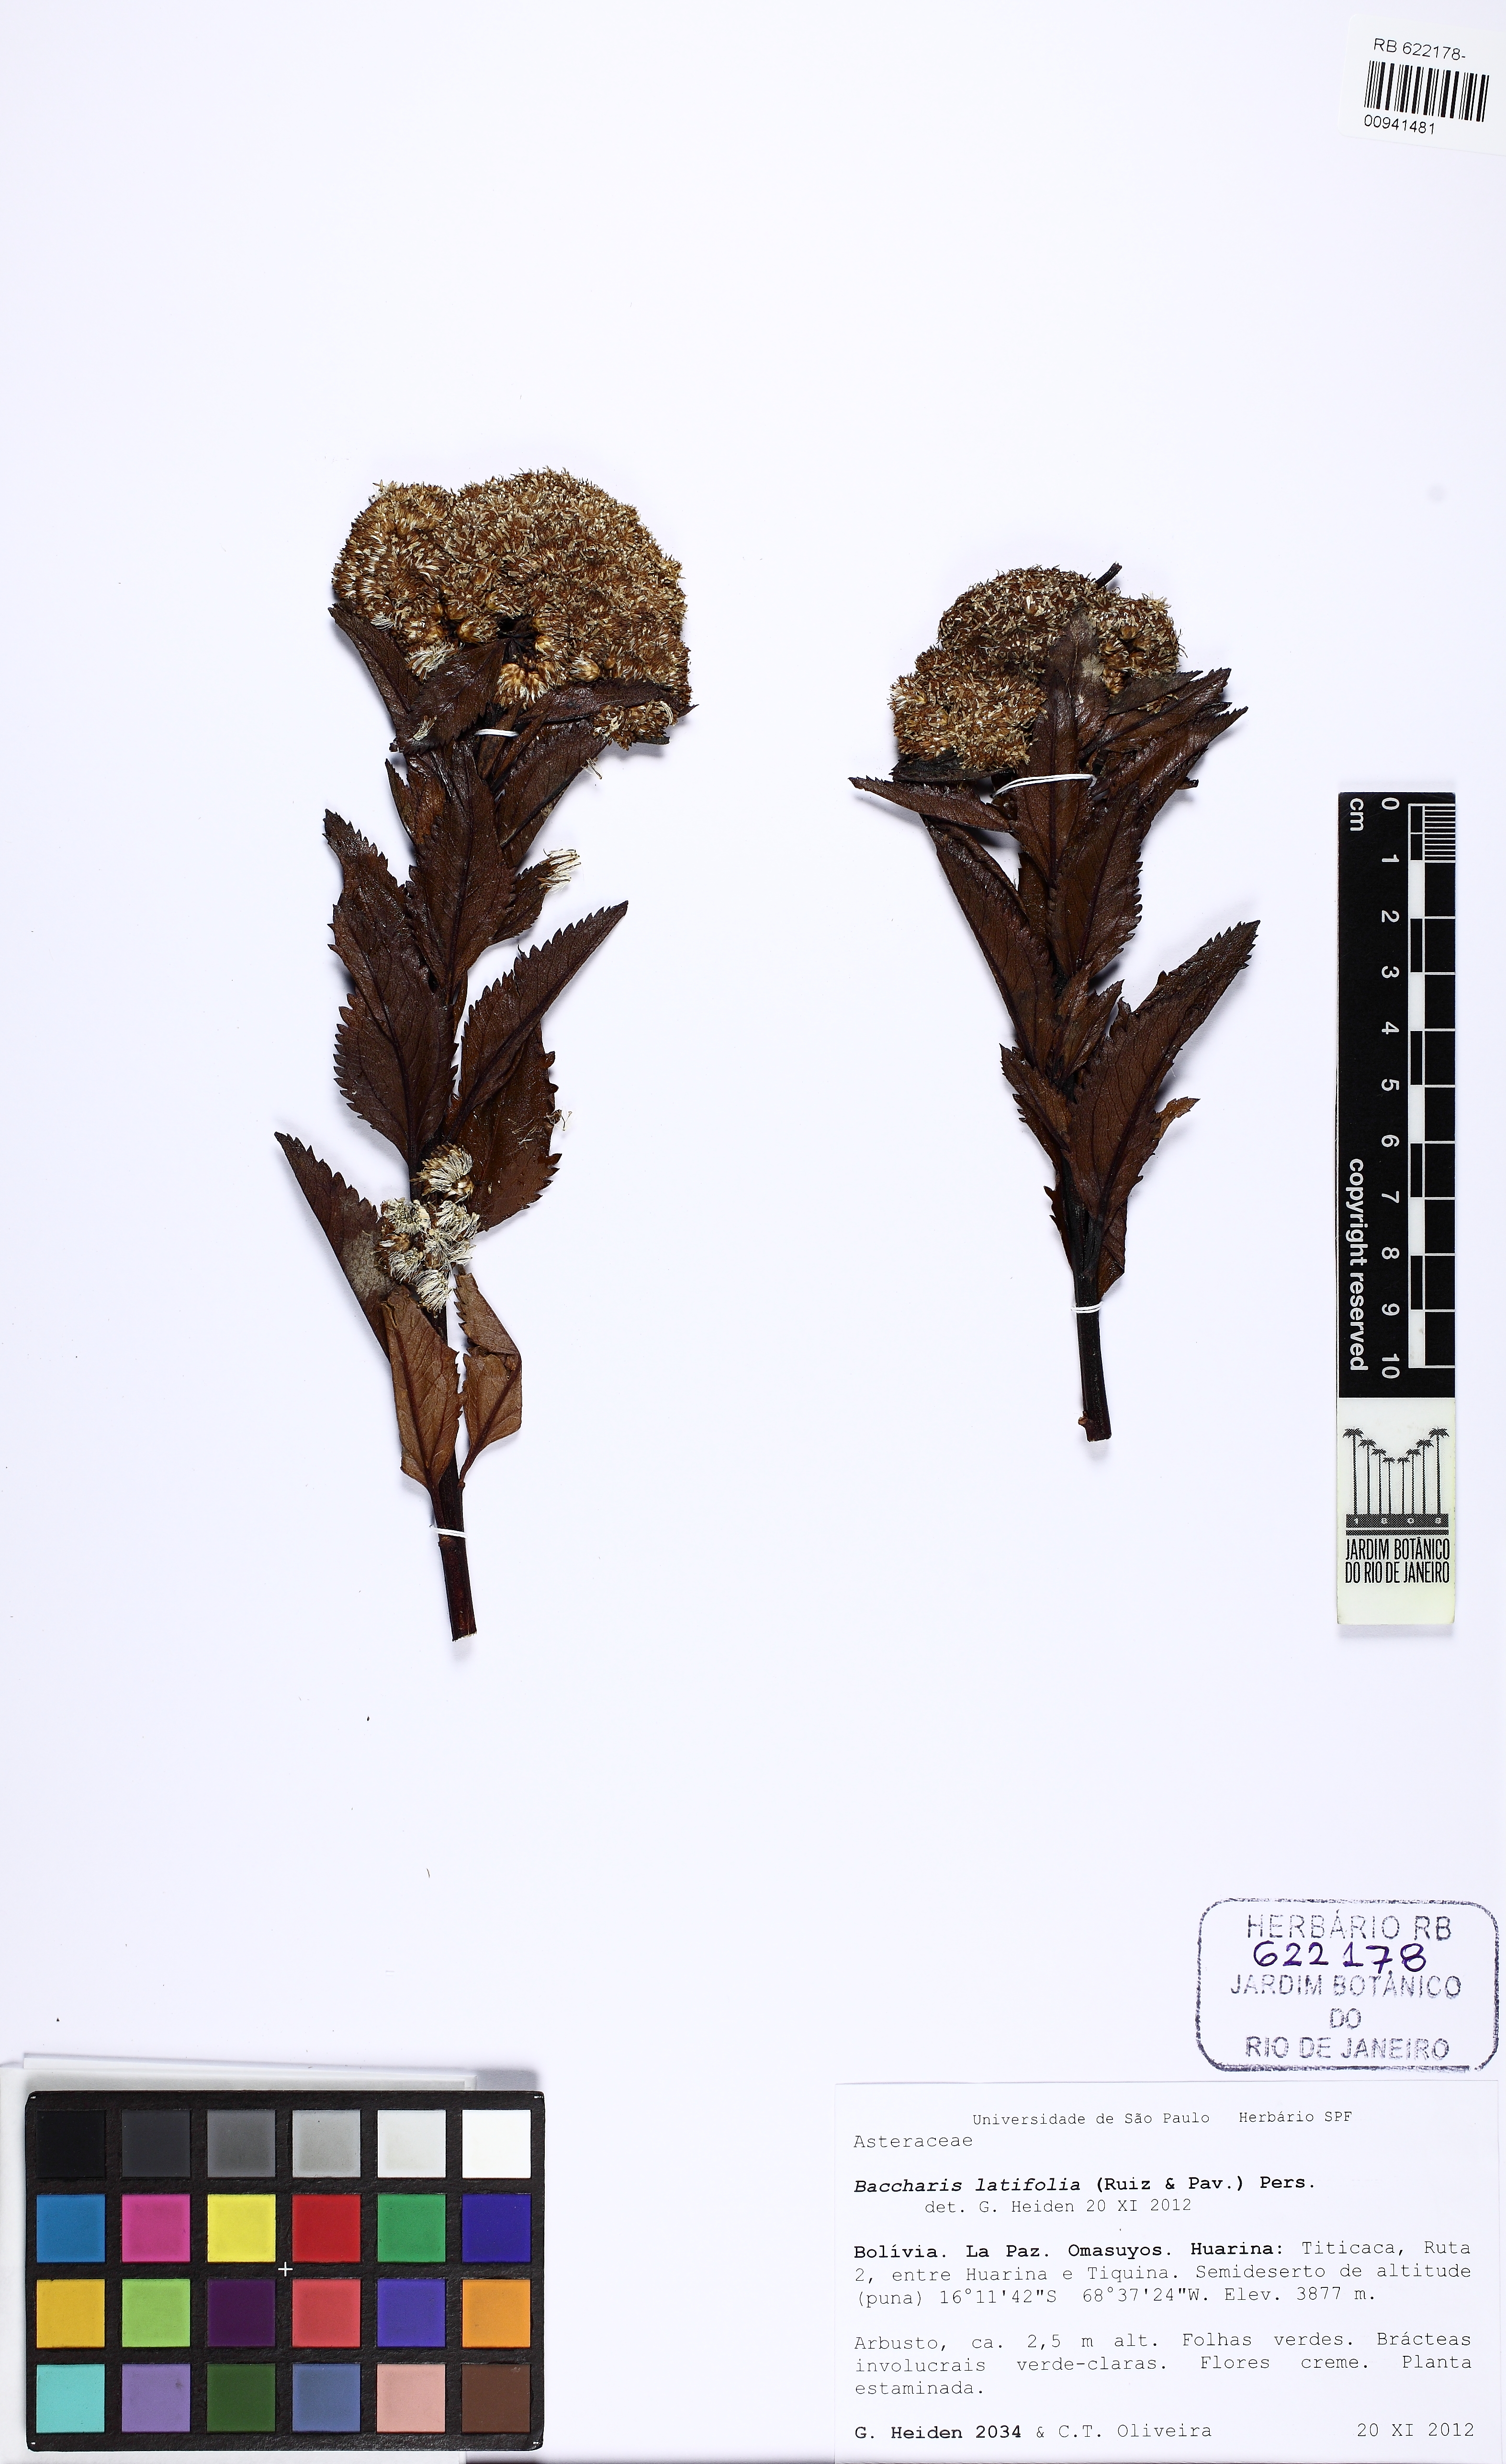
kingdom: Plantae
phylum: Tracheophyta
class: Magnoliopsida
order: Asterales
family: Asteraceae
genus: Baccharis
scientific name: Baccharis latifolia
